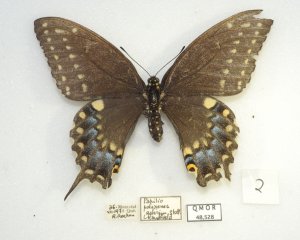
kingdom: Animalia
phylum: Arthropoda
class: Insecta
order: Lepidoptera
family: Papilionidae
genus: Papilio
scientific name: Papilio polyxenes
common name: Black Swallowtail
